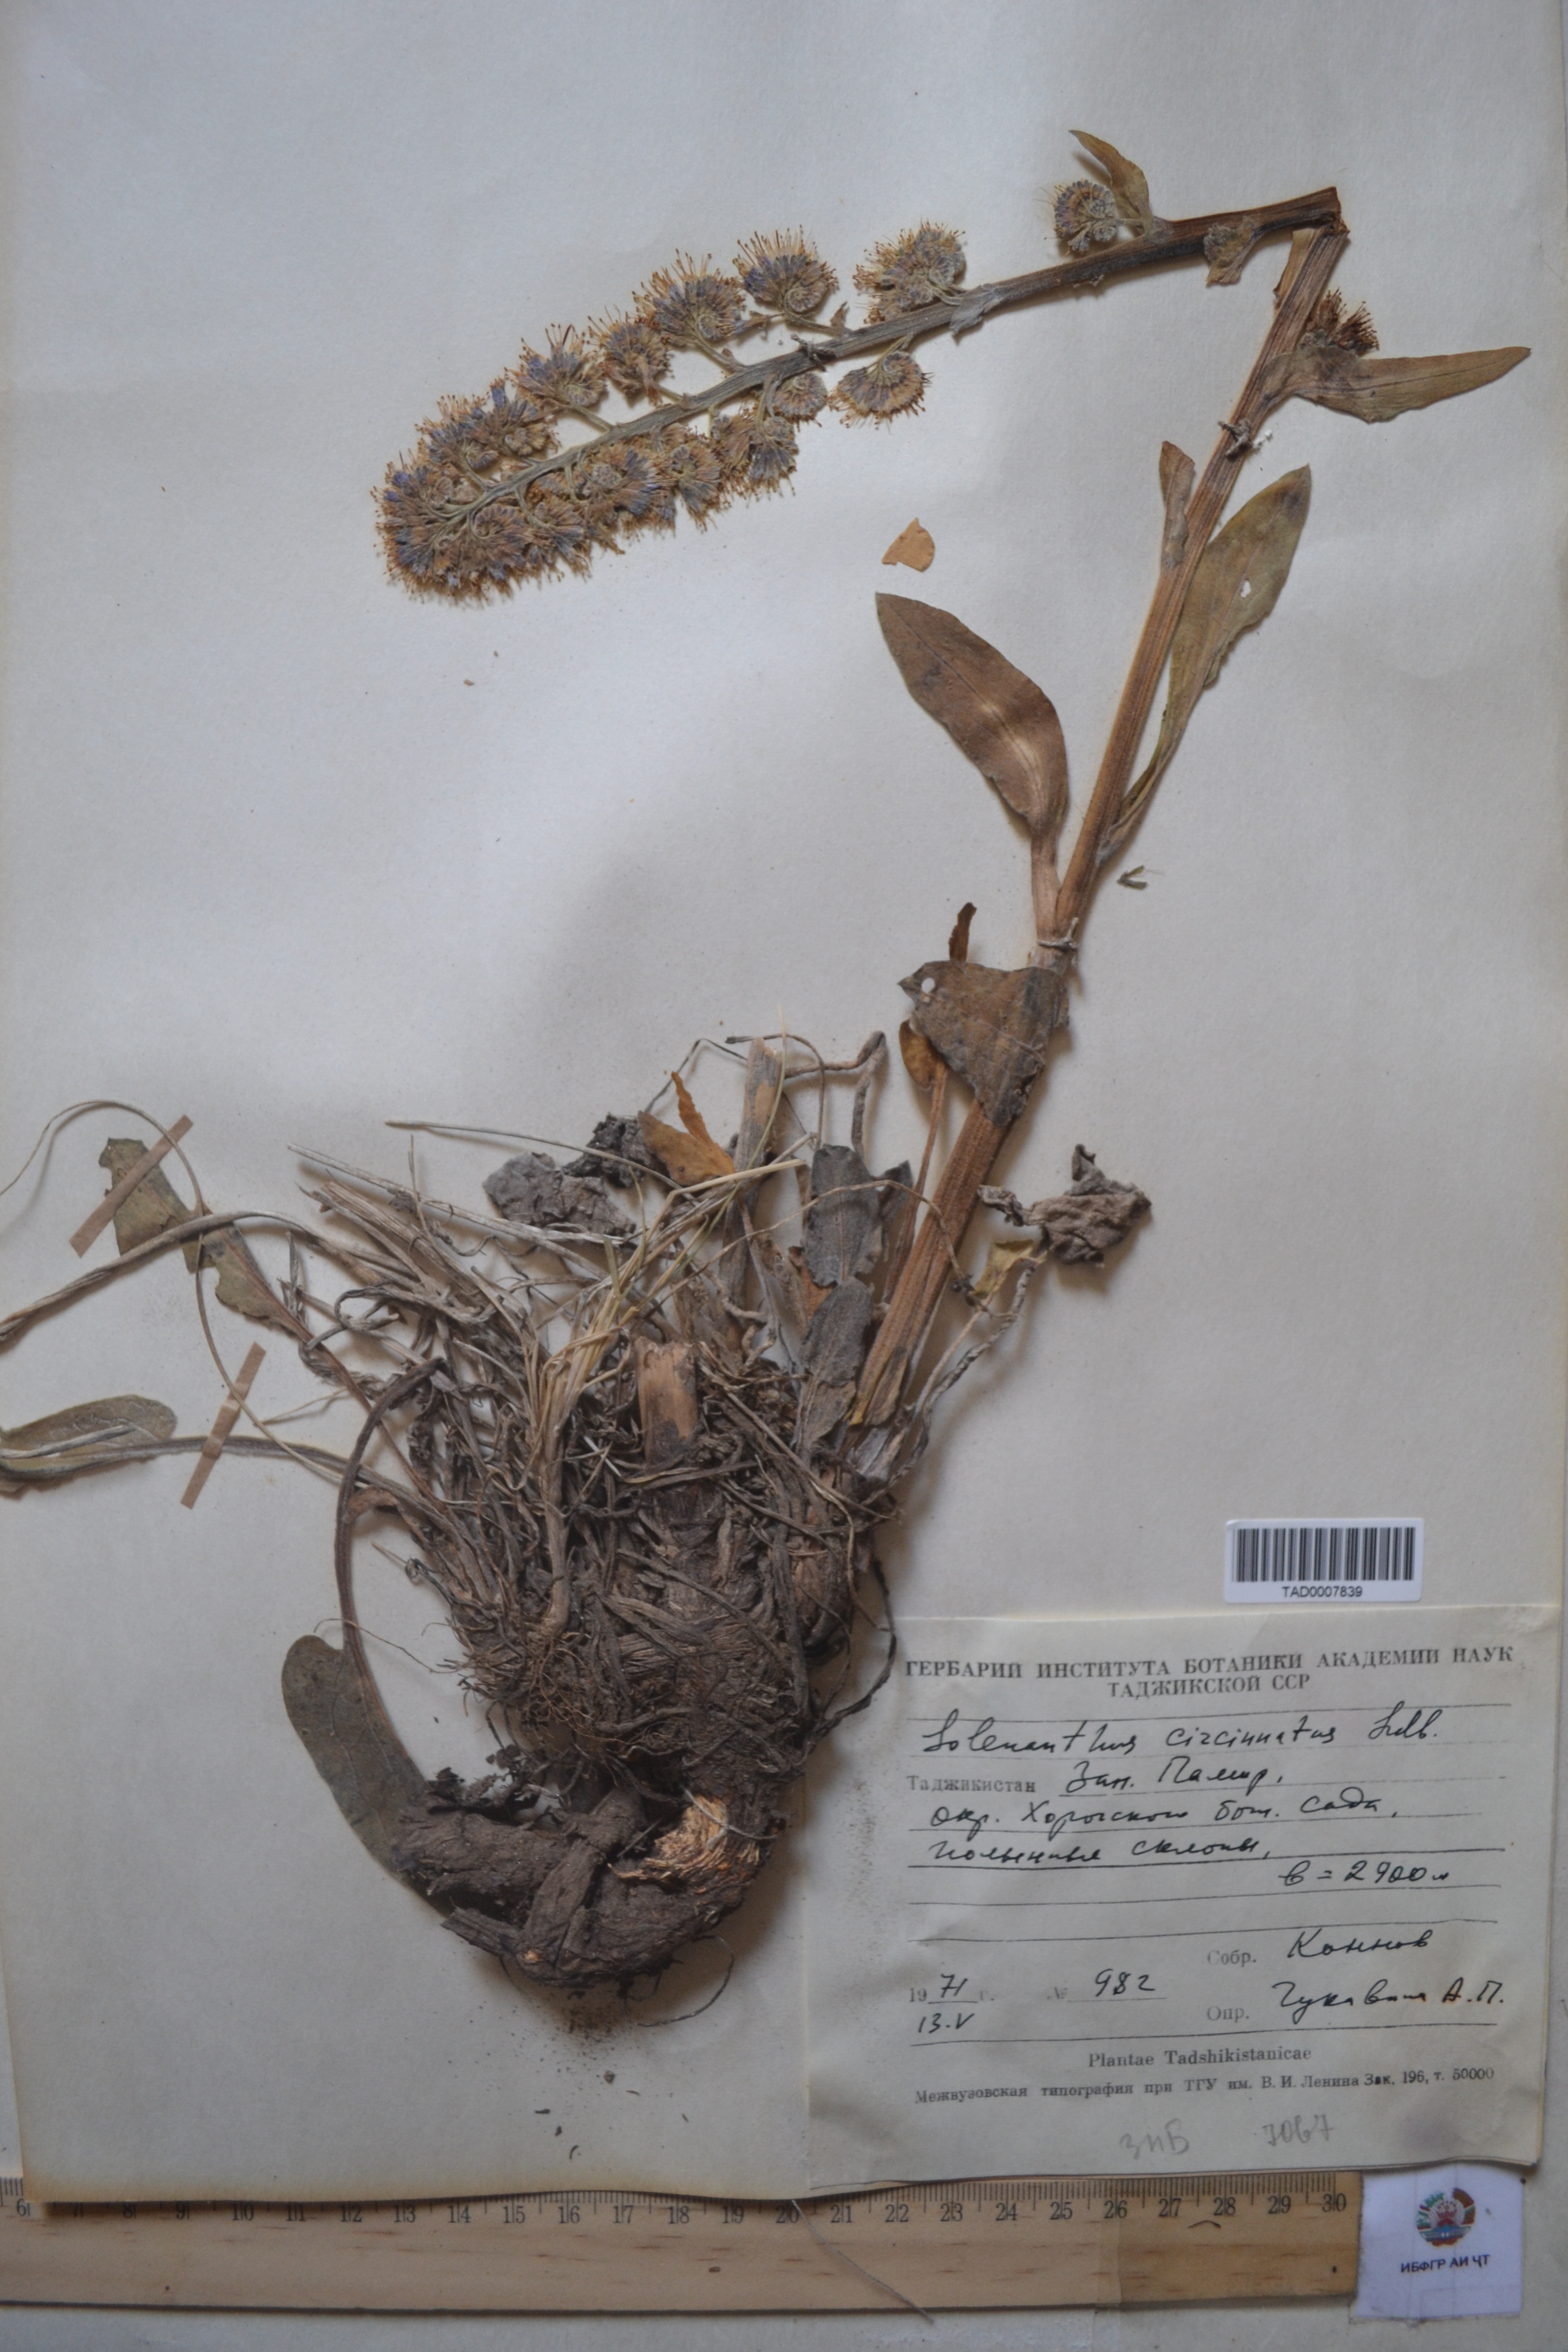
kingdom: Plantae
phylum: Tracheophyta
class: Magnoliopsida
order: Boraginales
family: Boraginaceae
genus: Solenanthus
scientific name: Solenanthus circinnatus
